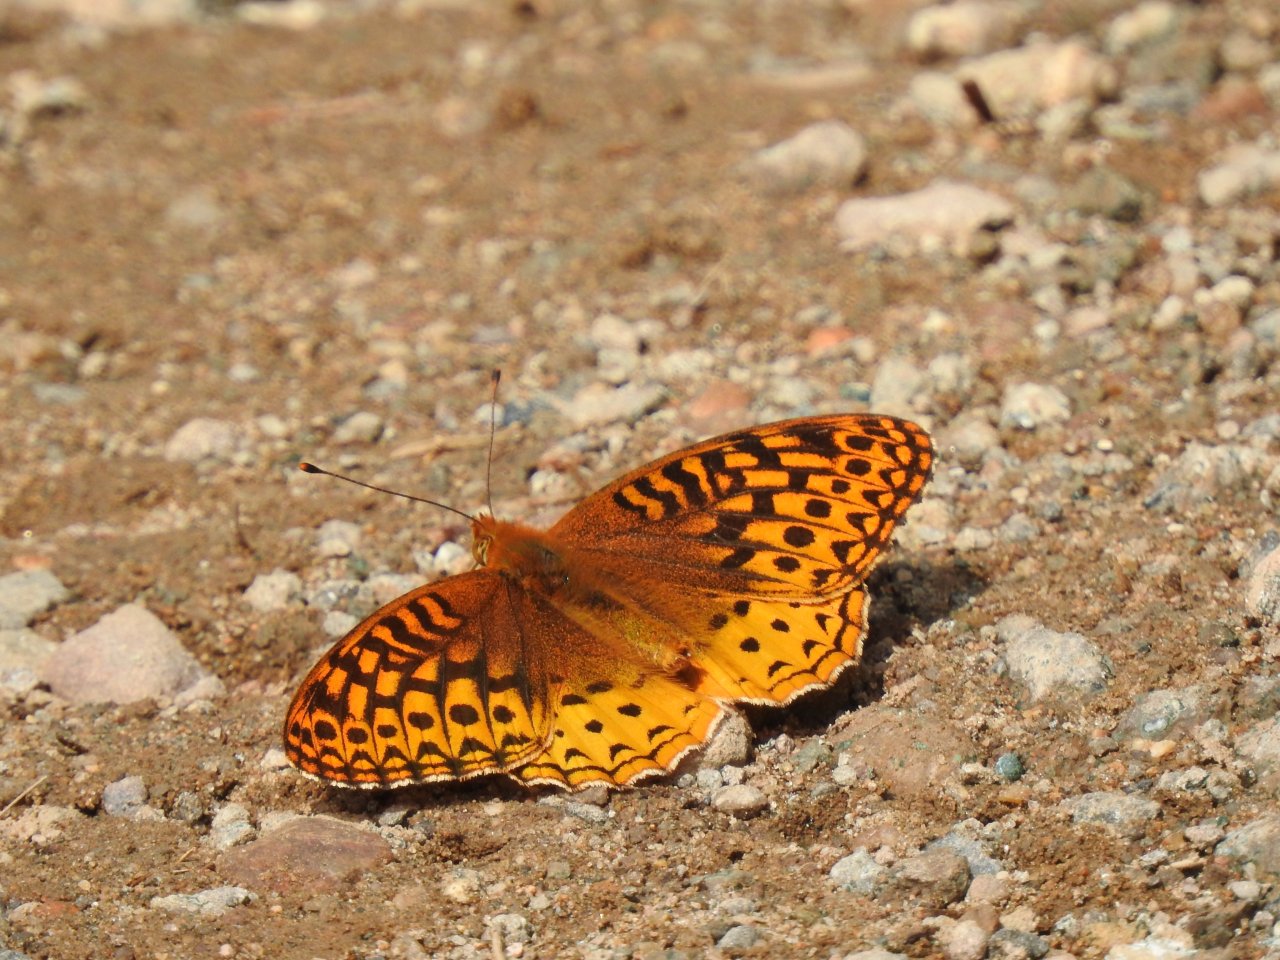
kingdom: Animalia
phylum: Arthropoda
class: Insecta
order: Lepidoptera
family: Nymphalidae
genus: Speyeria
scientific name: Speyeria cybele
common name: Great Spangled Fritillary
